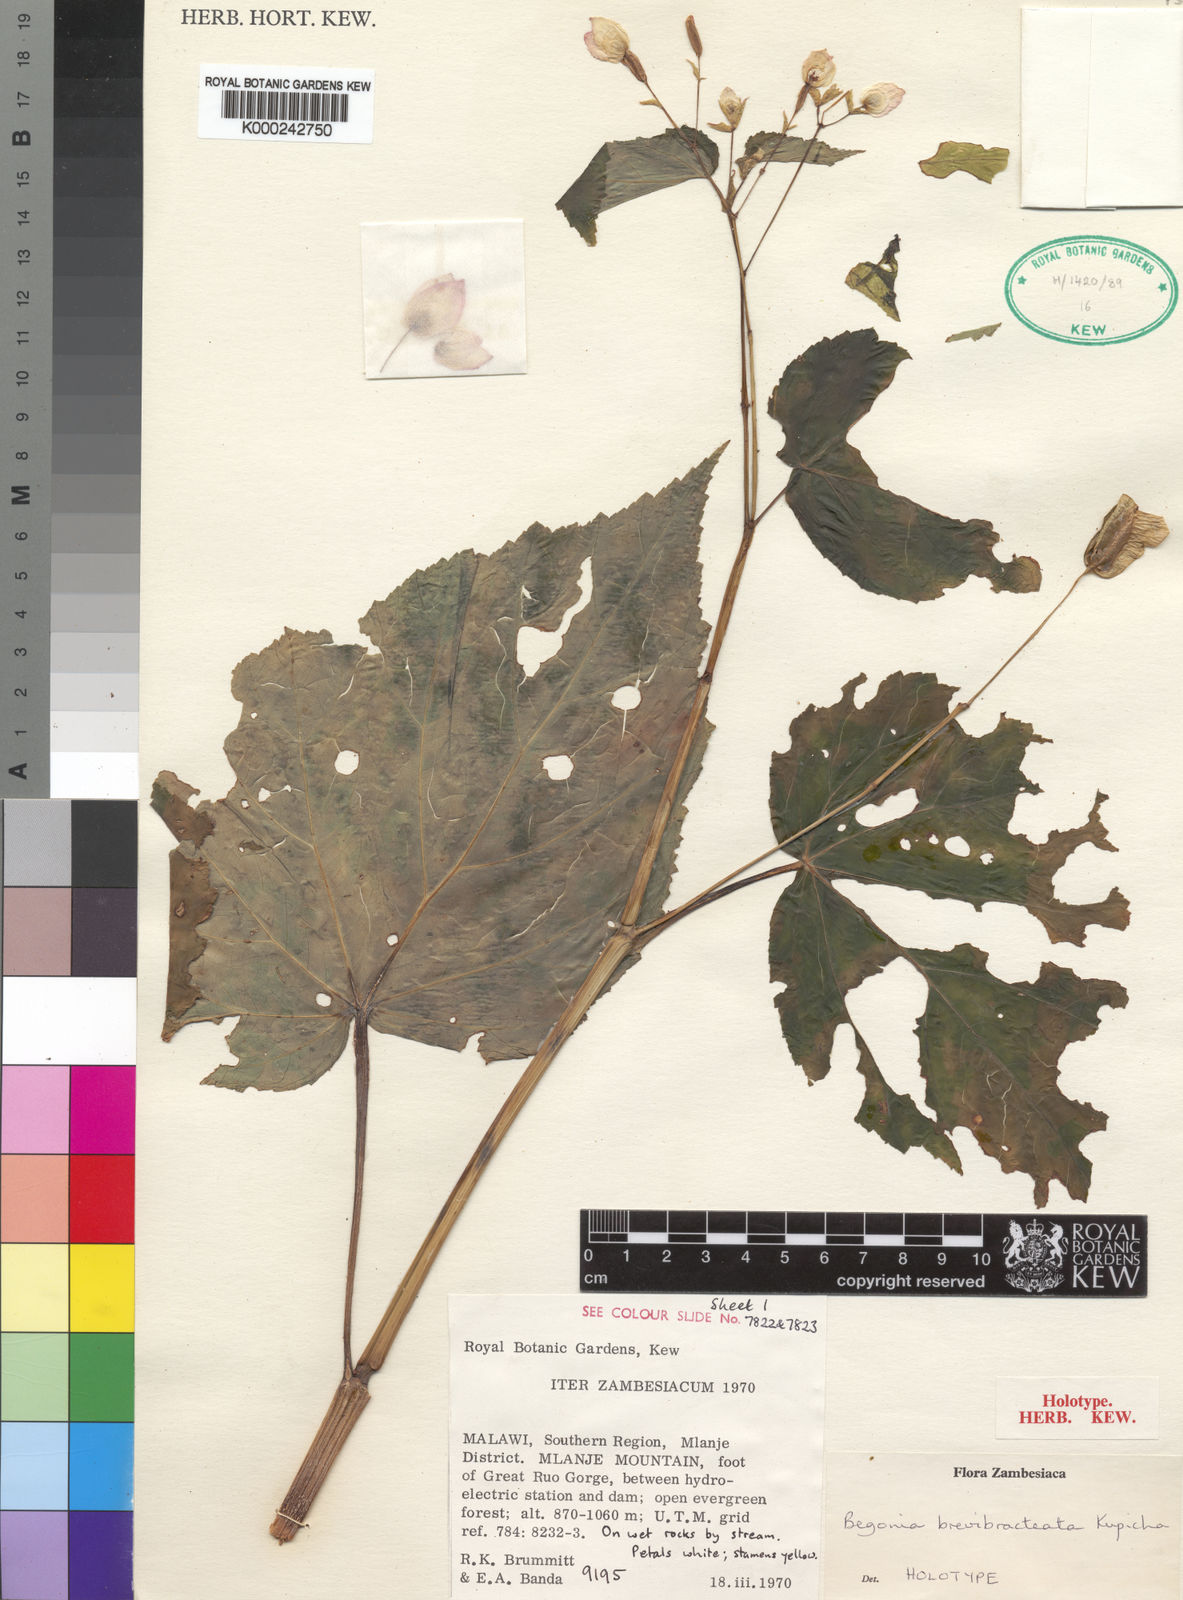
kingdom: Plantae
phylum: Tracheophyta
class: Magnoliopsida
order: Cucurbitales
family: Begoniaceae
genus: Begonia
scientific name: Begonia brevibracteata
